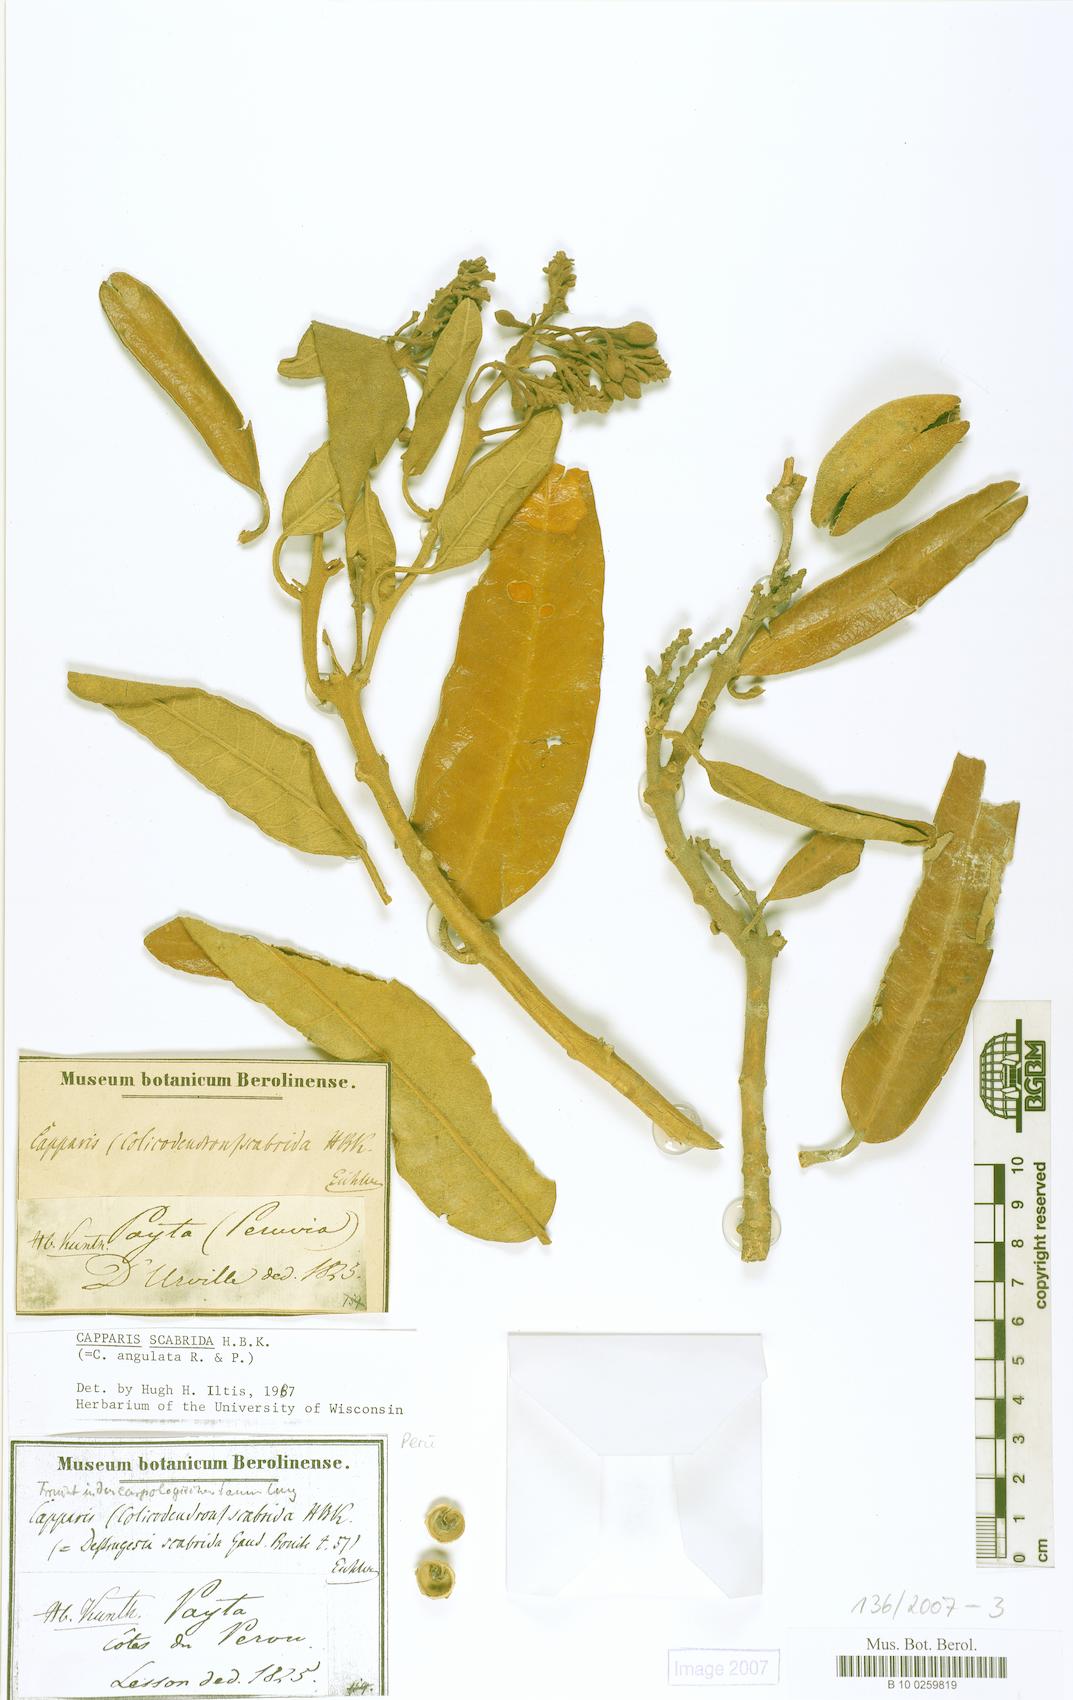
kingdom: Plantae
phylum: Tracheophyta
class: Magnoliopsida
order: Brassicales
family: Capparaceae
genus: Colicodendron
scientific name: Colicodendron scabridum
